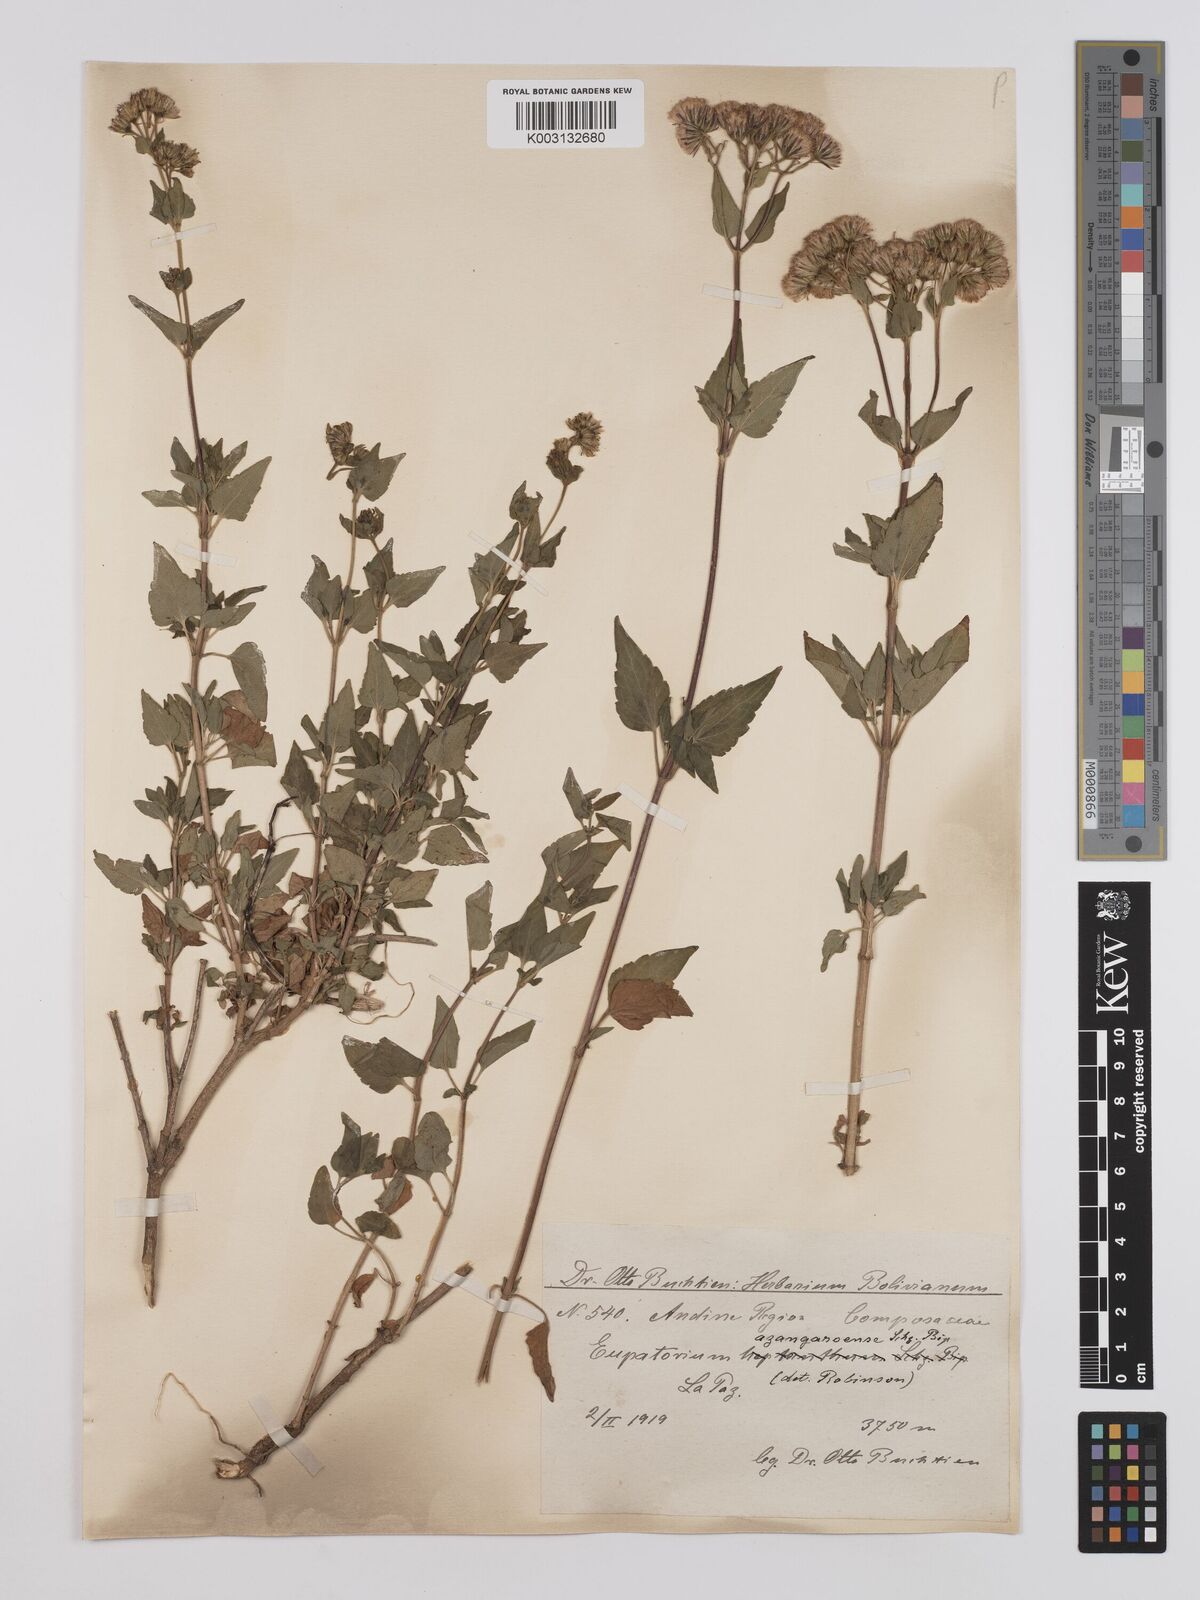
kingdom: Plantae
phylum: Tracheophyta
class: Magnoliopsida
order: Asterales
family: Asteraceae
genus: Ageratina
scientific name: Ageratina glechonophylla
